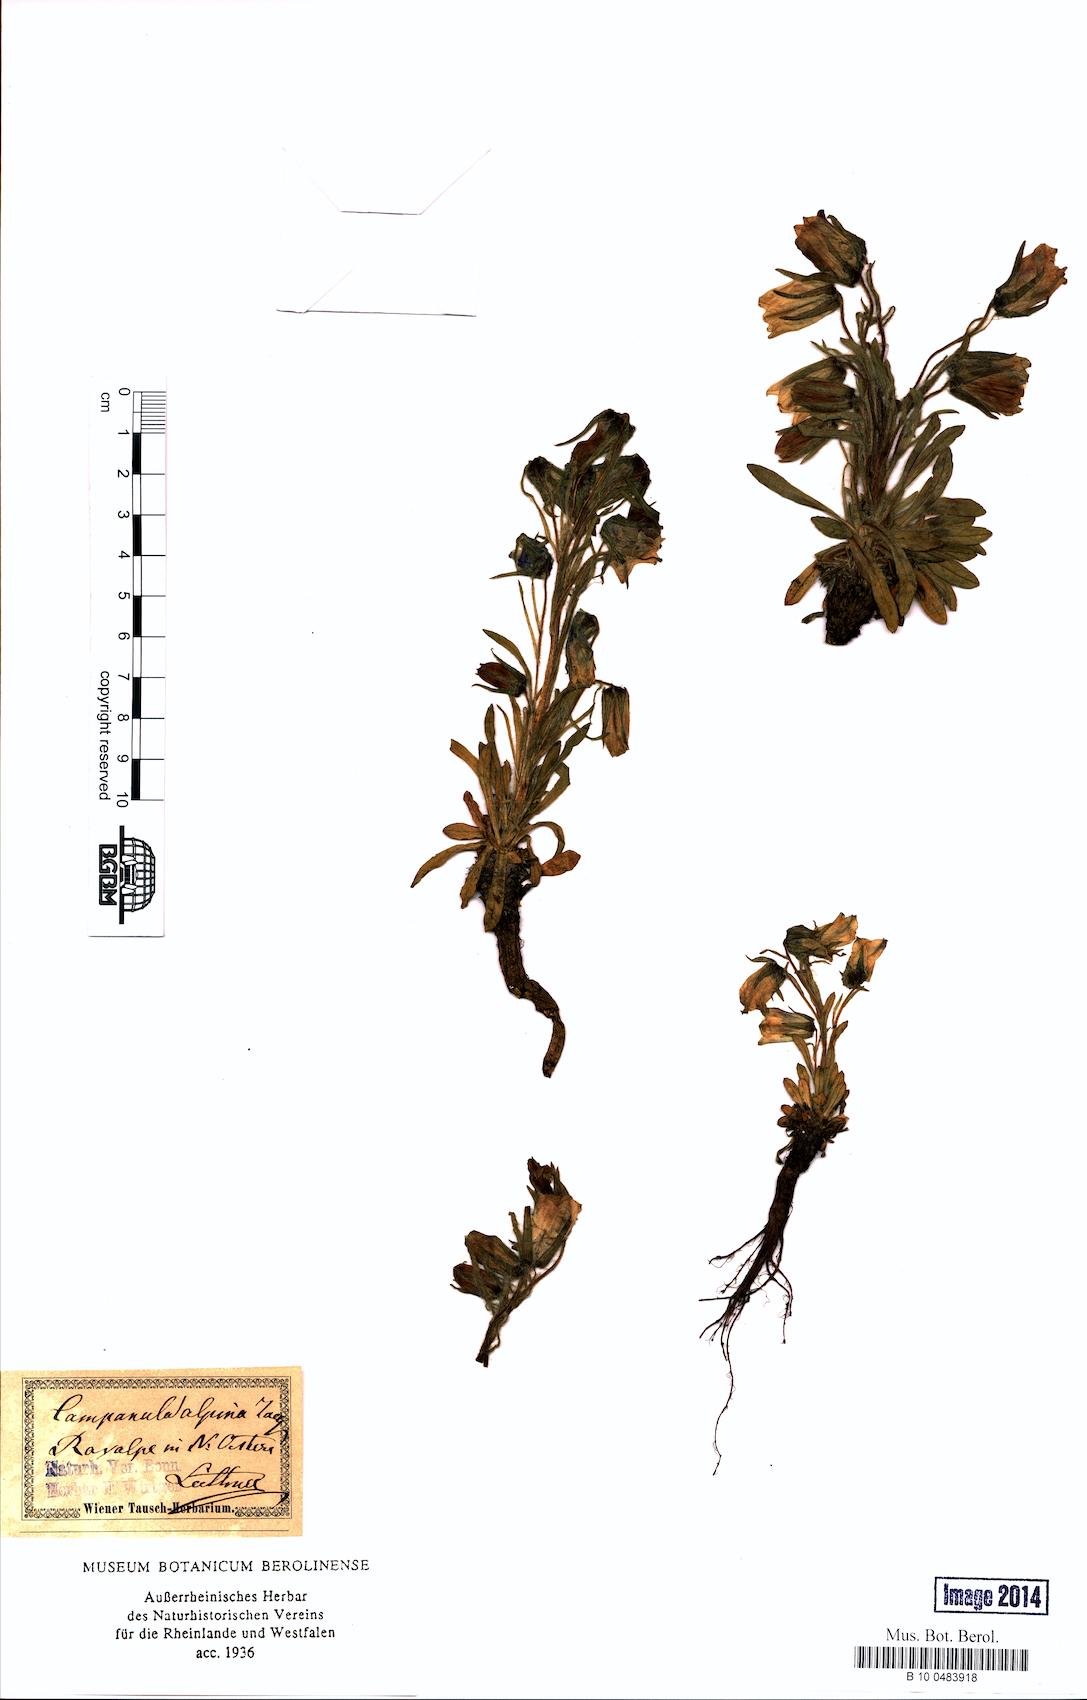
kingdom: Plantae
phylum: Tracheophyta
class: Magnoliopsida
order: Asterales
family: Campanulaceae
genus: Campanula
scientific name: Campanula alpina
